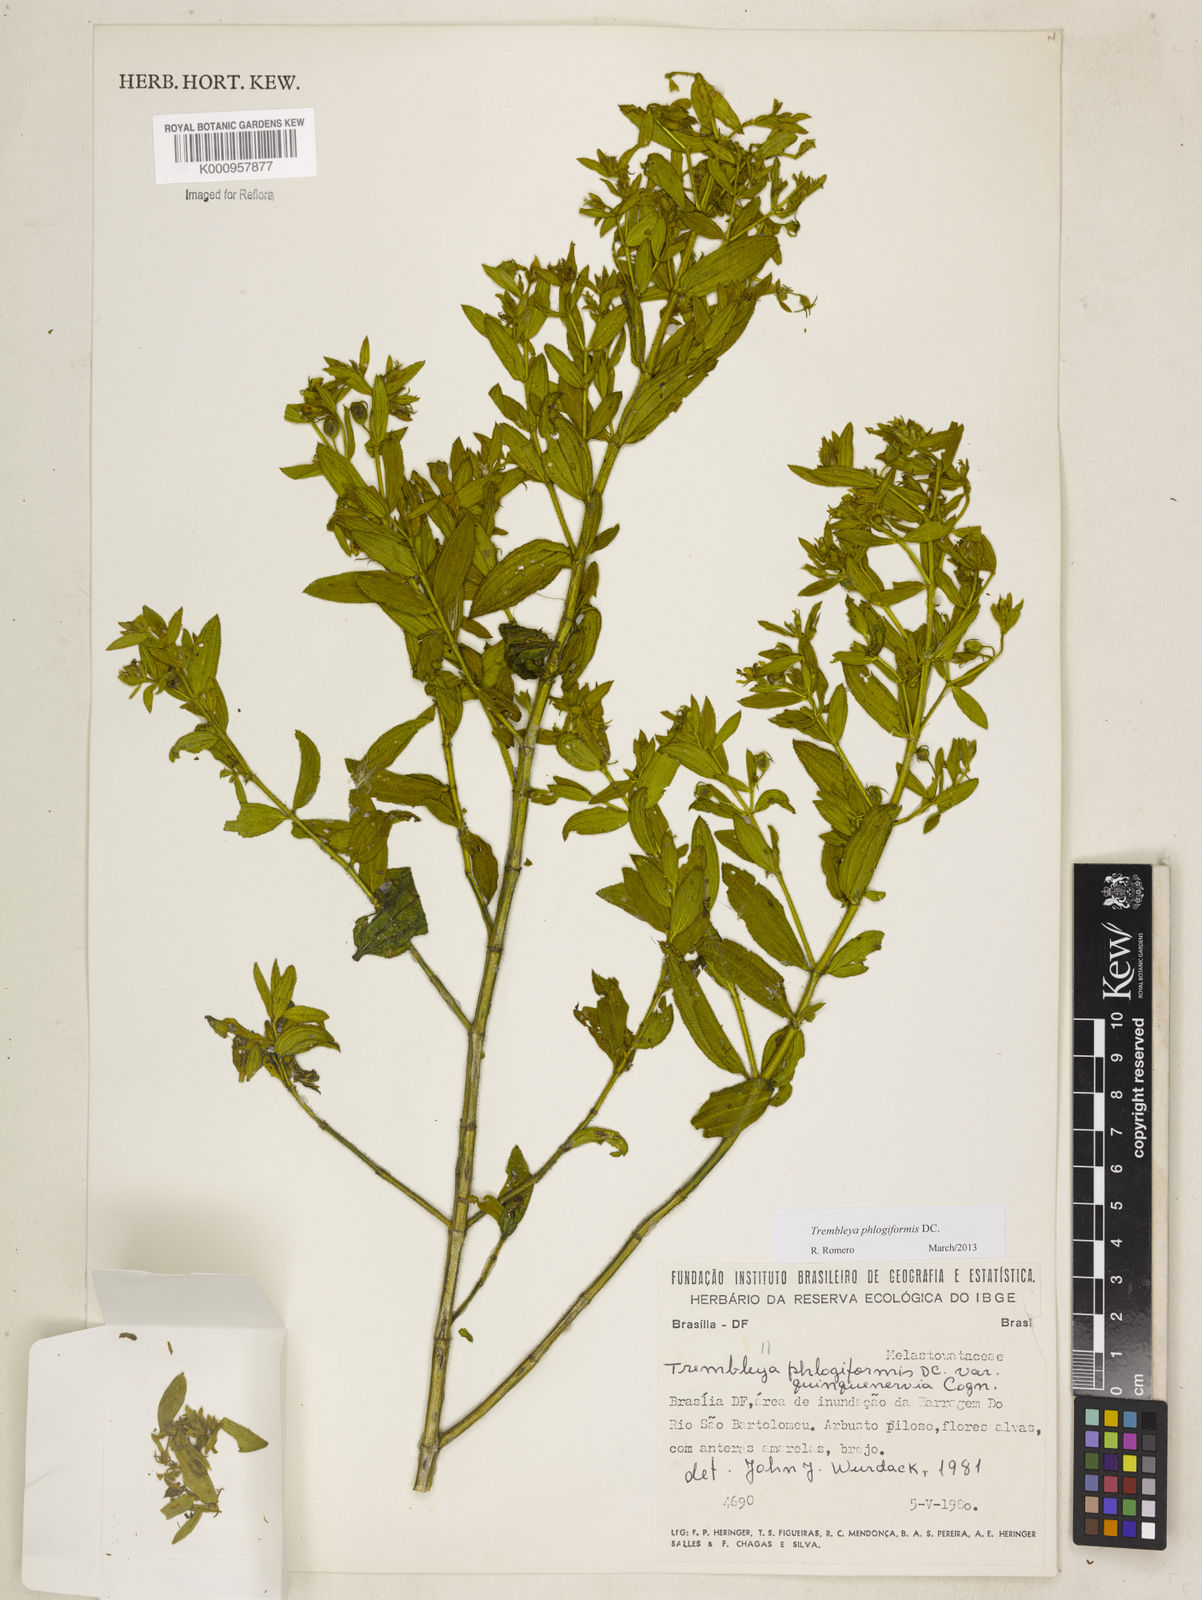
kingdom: Plantae
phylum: Tracheophyta
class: Magnoliopsida
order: Myrtales
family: Melastomataceae
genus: Microlicia
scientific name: Microlicia phlogiformis
